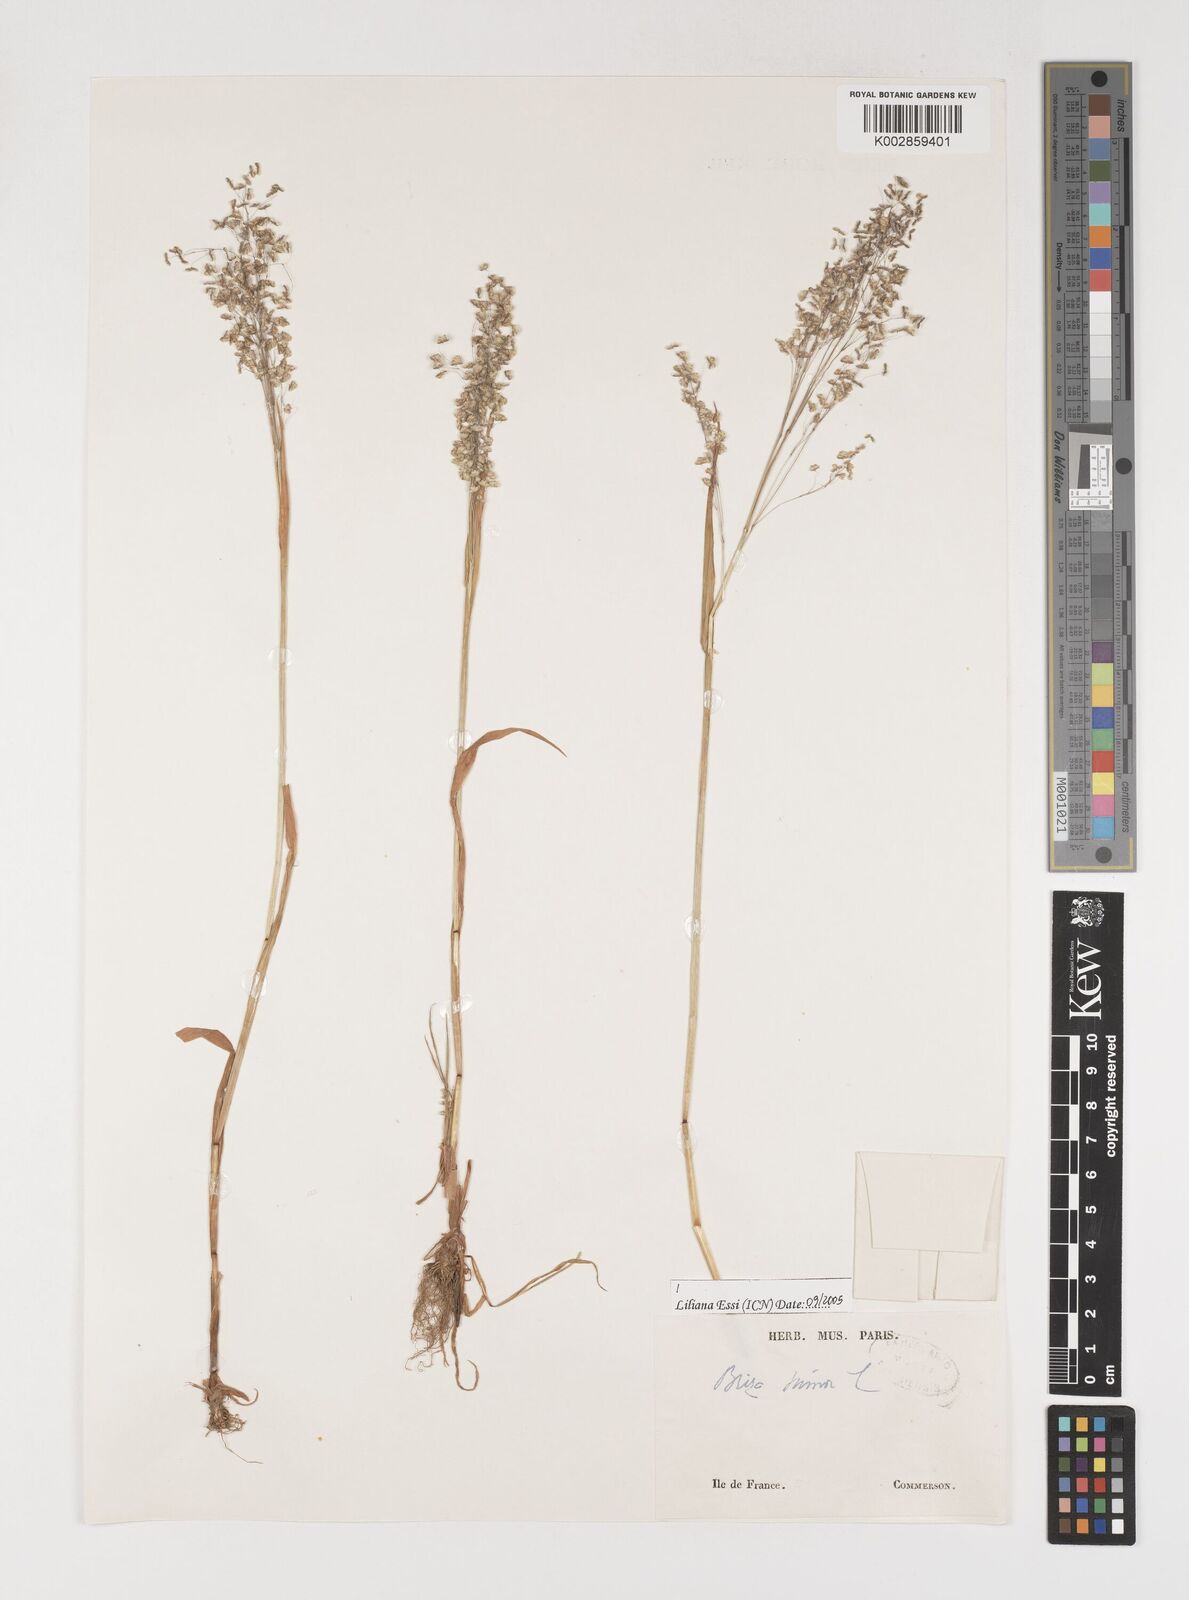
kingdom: Plantae
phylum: Tracheophyta
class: Liliopsida
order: Poales
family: Poaceae
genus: Briza
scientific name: Briza minor
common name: Lesser quaking-grass
